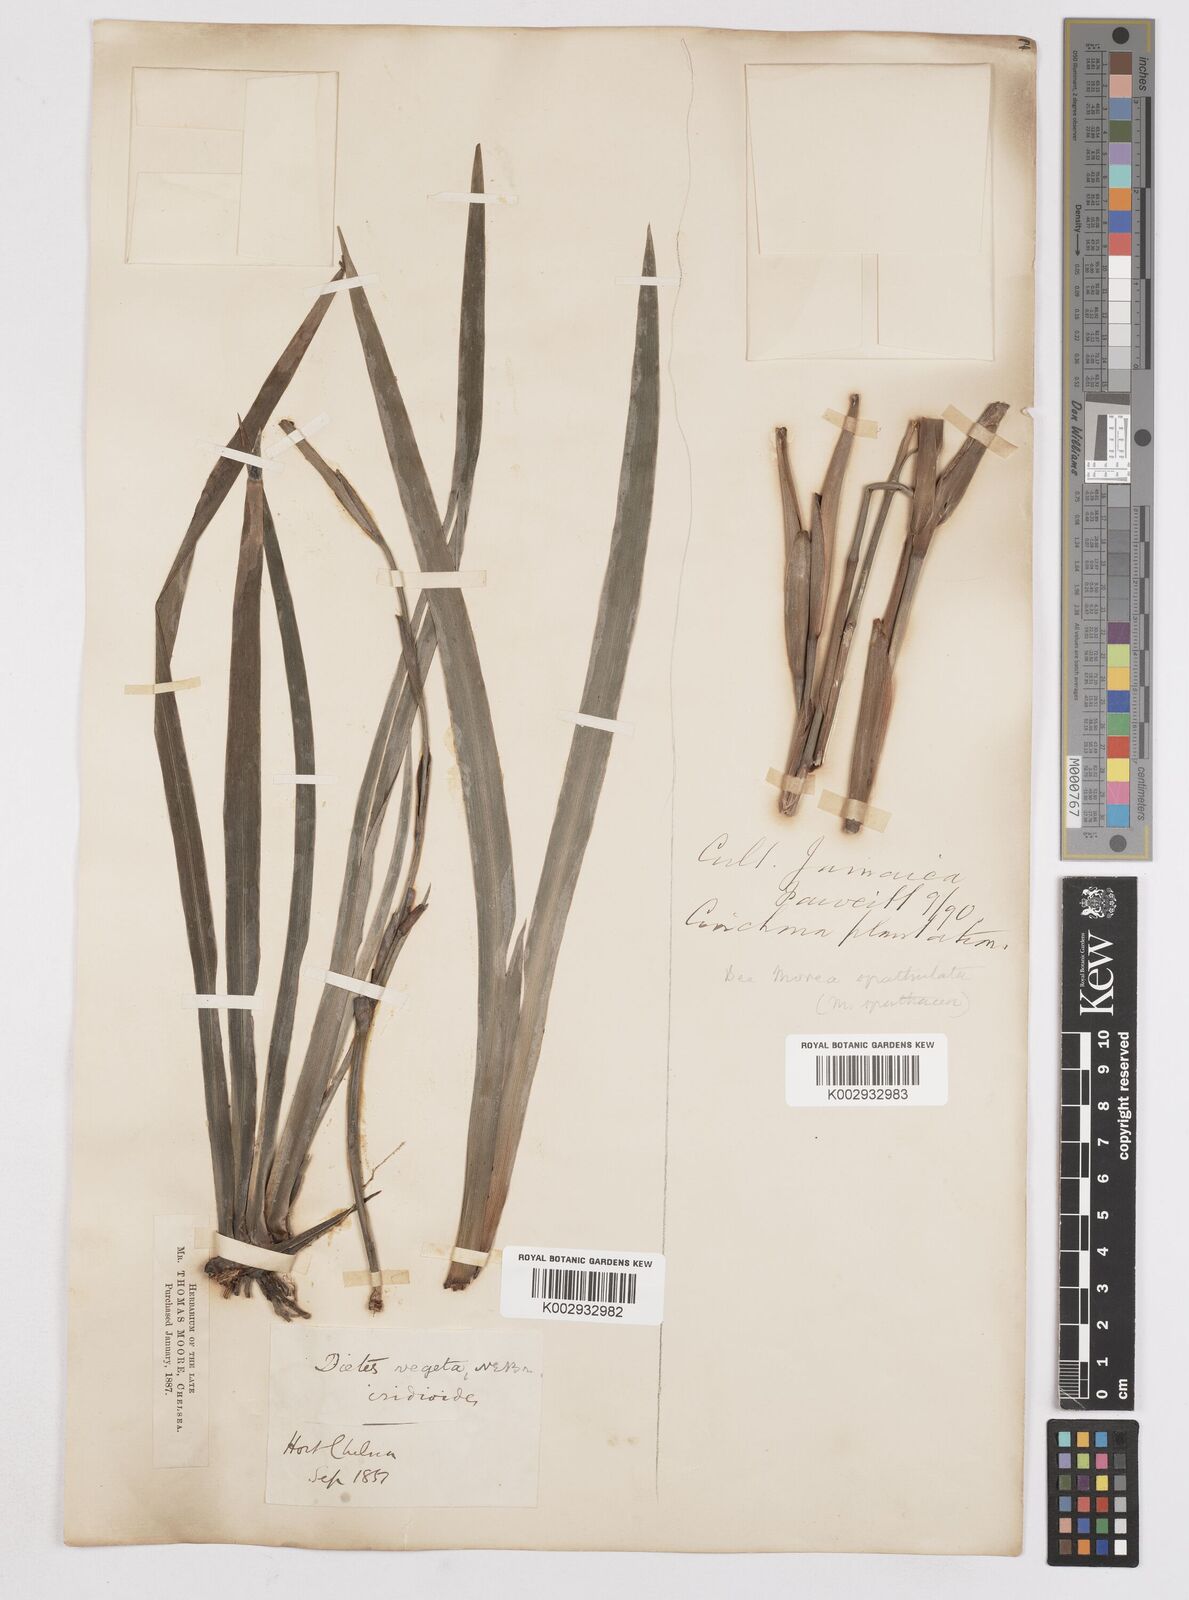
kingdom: Plantae
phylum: Tracheophyta
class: Liliopsida
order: Asparagales
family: Iridaceae
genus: Dietes
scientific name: Dietes iridioides
